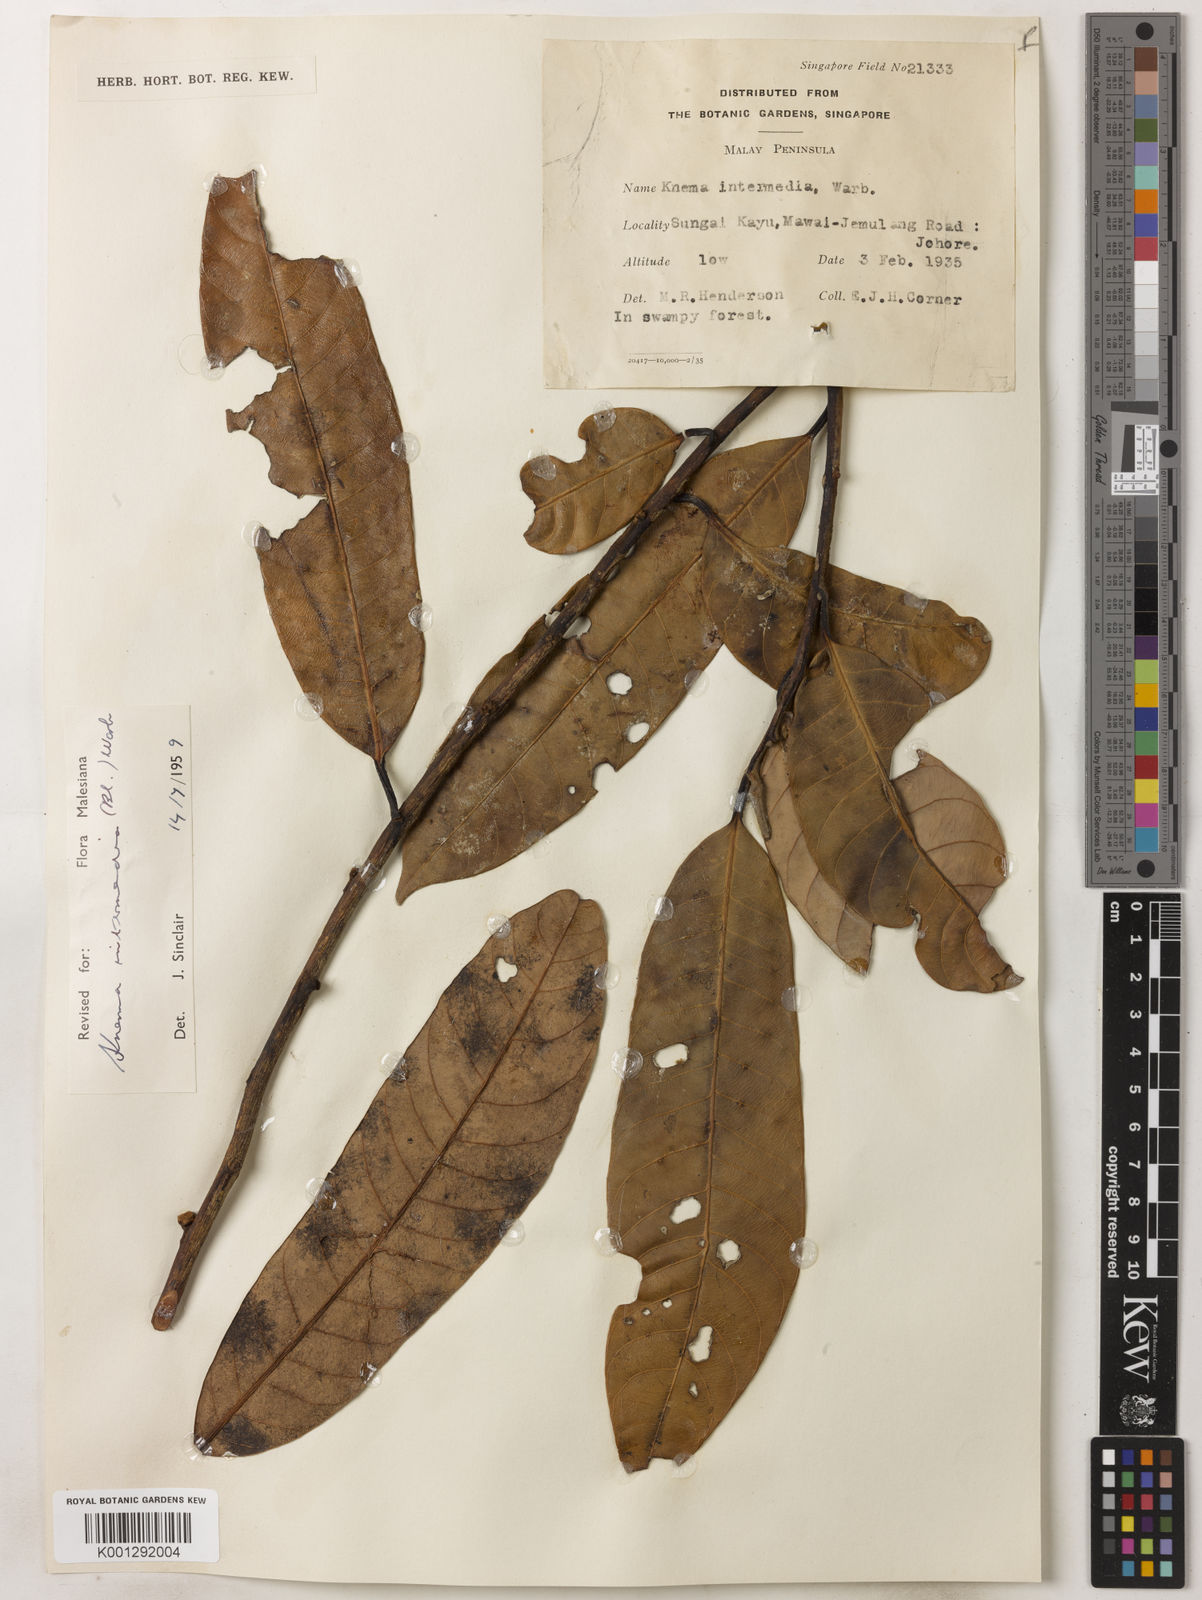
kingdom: Plantae
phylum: Tracheophyta
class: Magnoliopsida
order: Magnoliales
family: Myristicaceae
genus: Knema
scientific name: Knema intermedia
